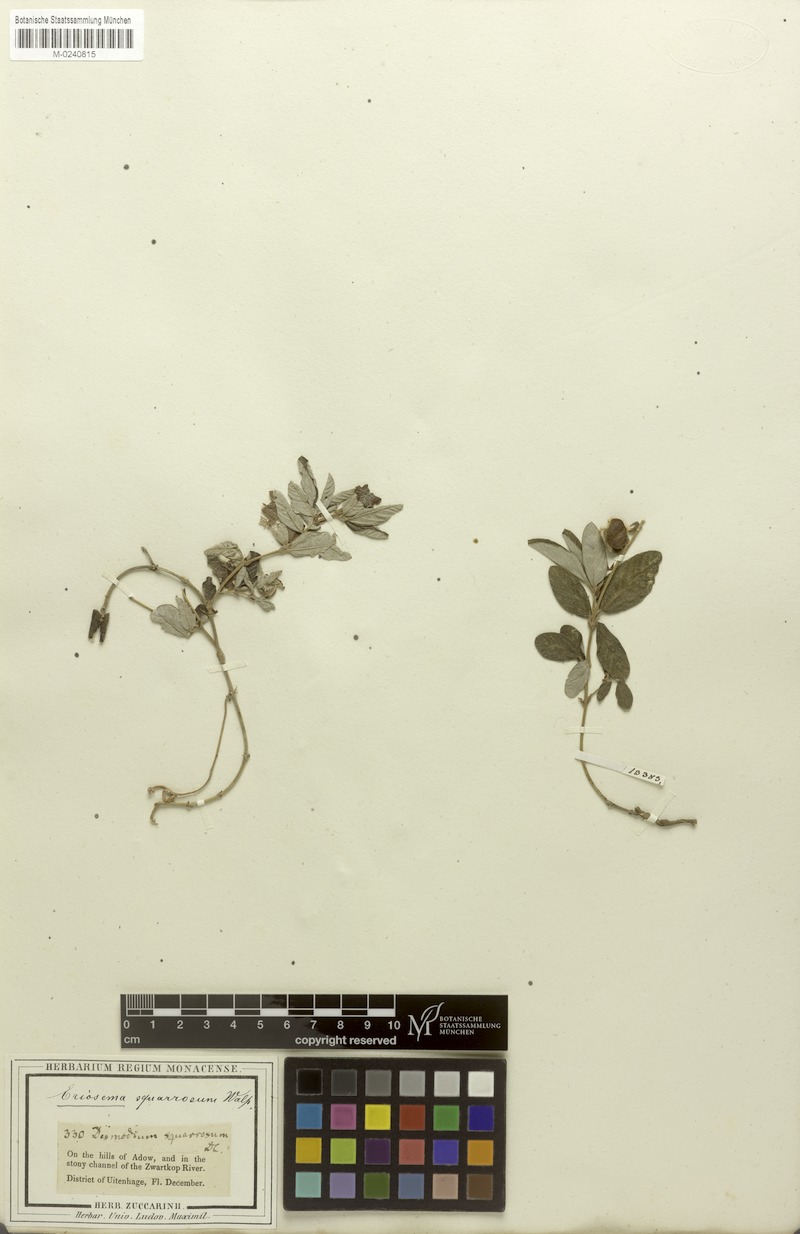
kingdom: Plantae
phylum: Tracheophyta
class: Magnoliopsida
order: Fabales
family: Fabaceae
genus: Eriosema
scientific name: Eriosema squarrosum
